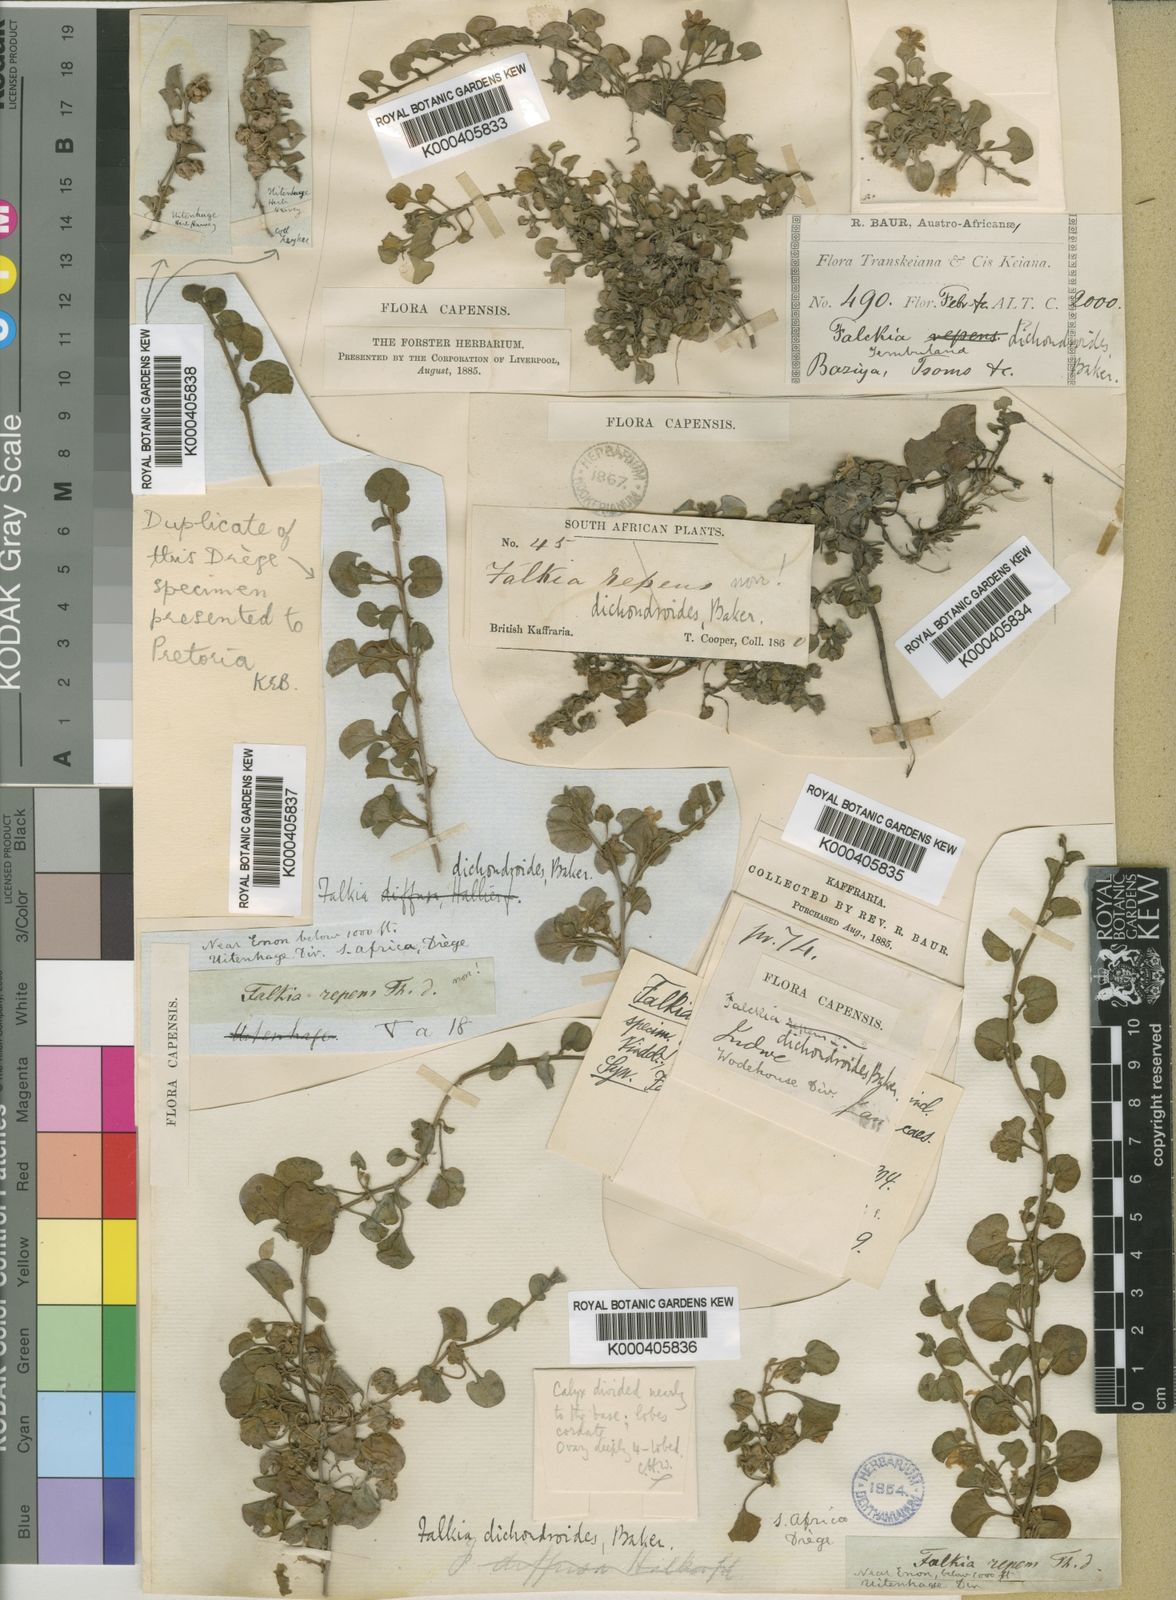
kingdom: Plantae
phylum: Tracheophyta
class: Magnoliopsida
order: Solanales
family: Convolvulaceae
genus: Falkia
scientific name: Falkia repens
